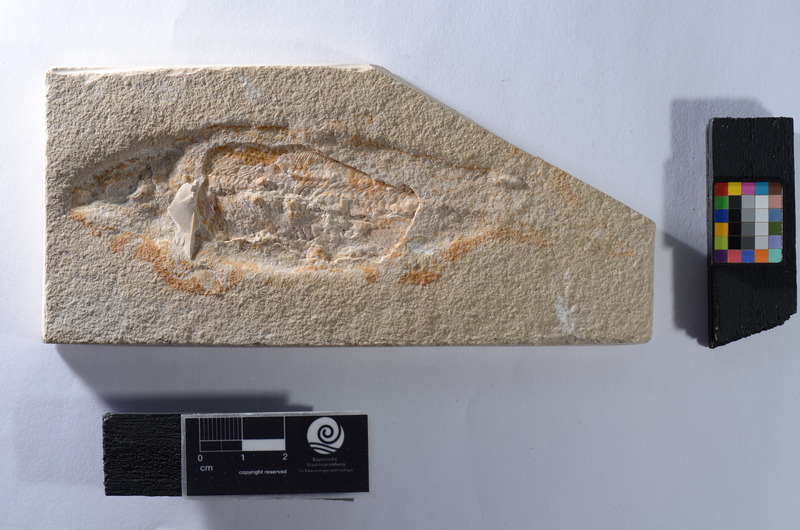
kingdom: Animalia
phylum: Chordata
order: Amiiformes
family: Caturidae
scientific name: Caturidae
